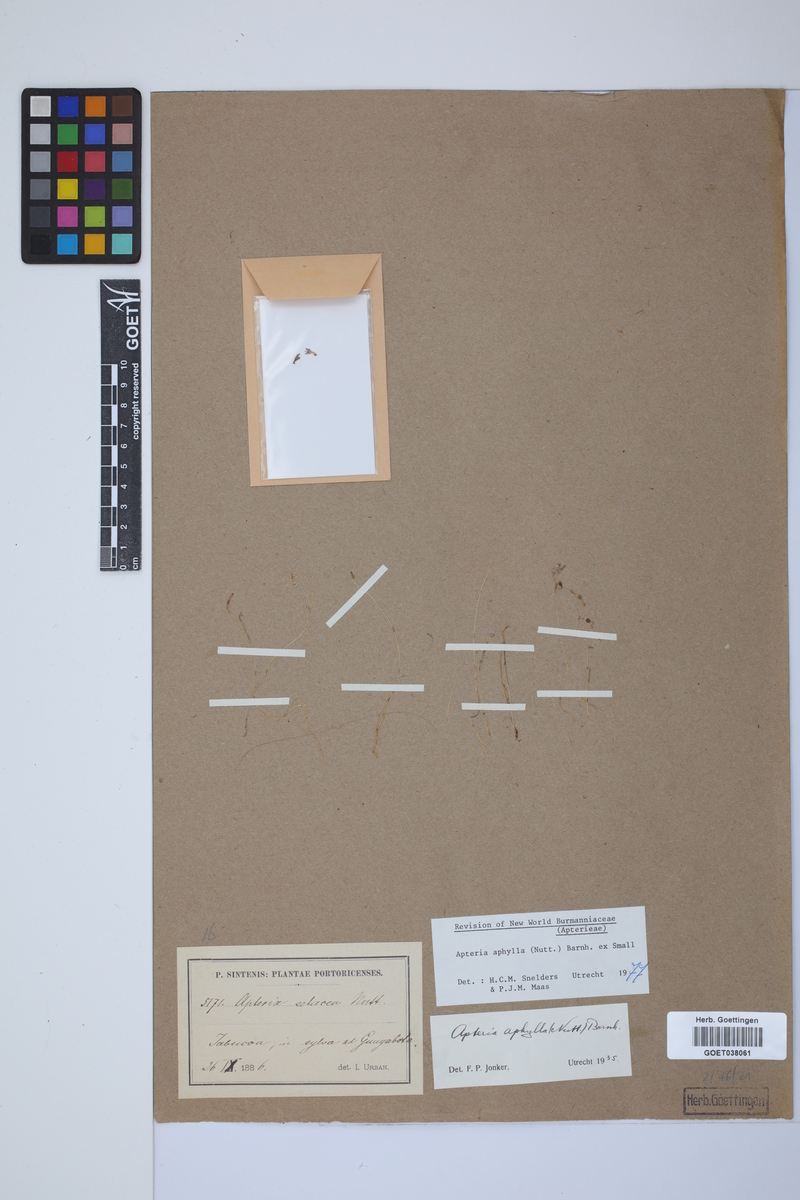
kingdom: Plantae
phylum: Tracheophyta
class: Liliopsida
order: Dioscoreales
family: Burmanniaceae
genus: Apteria
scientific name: Apteria aphylla
